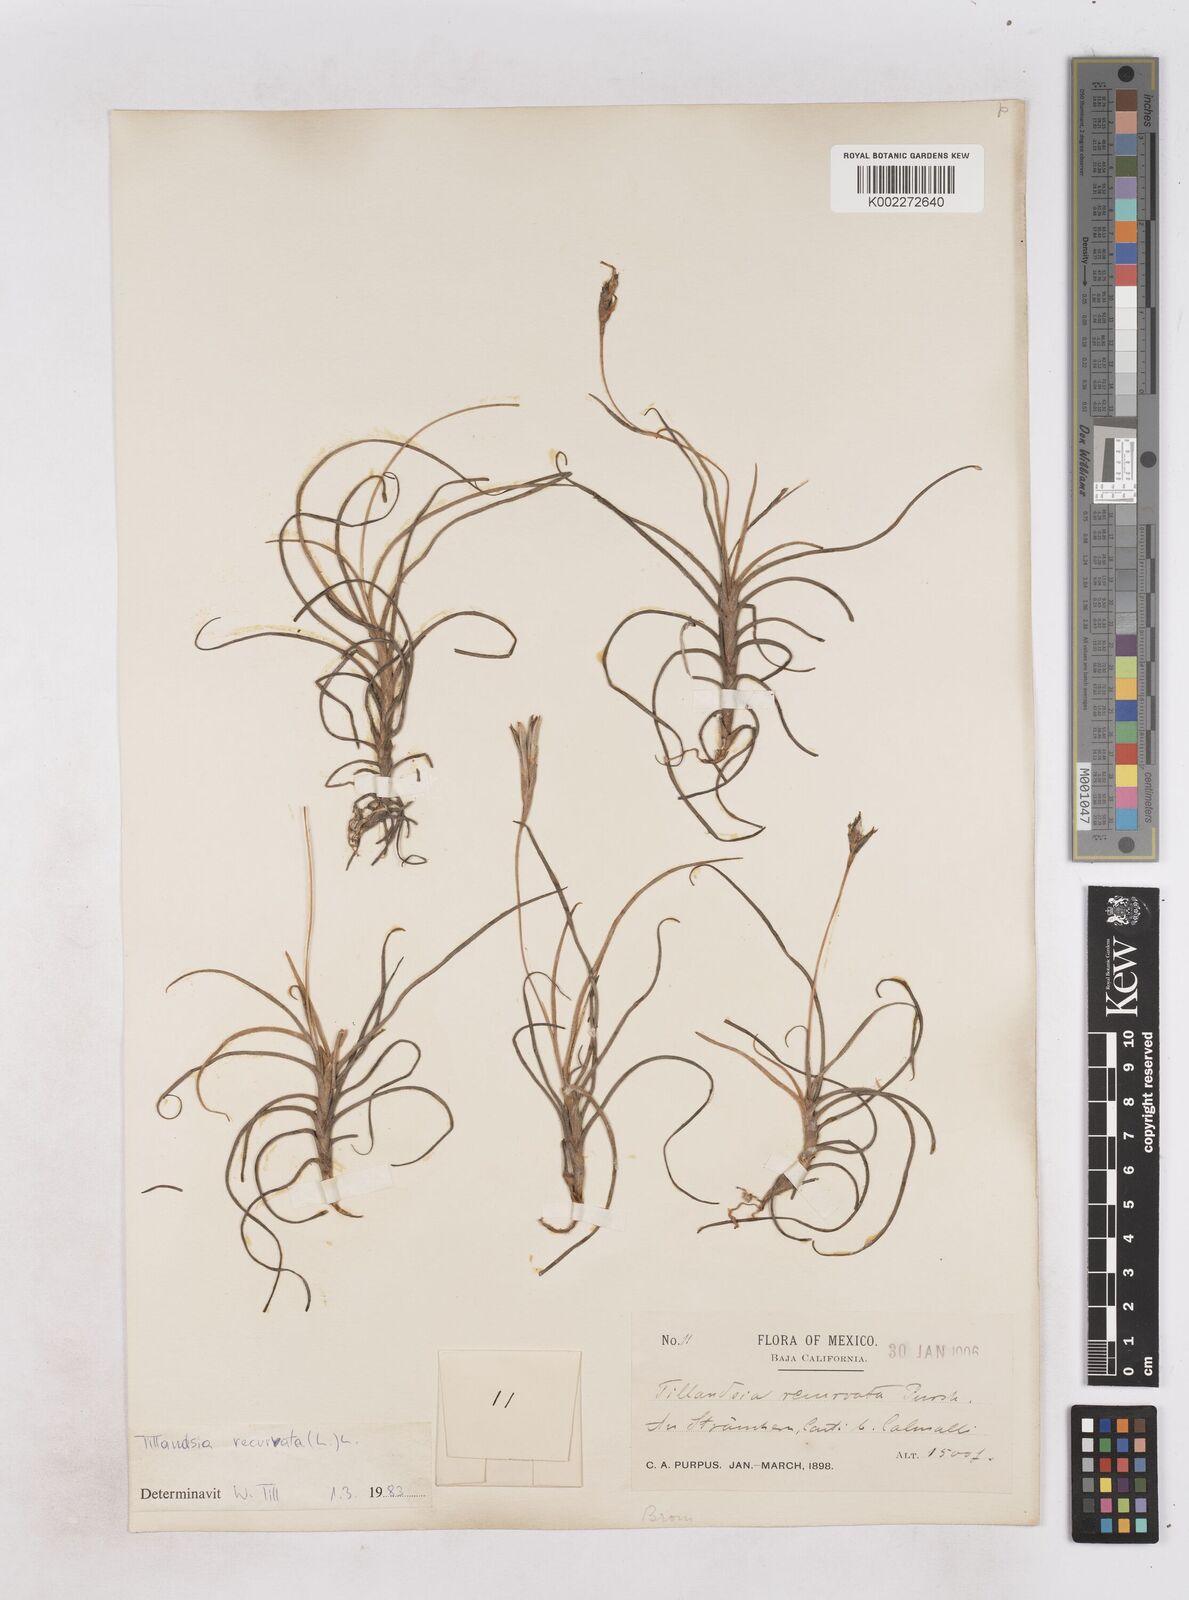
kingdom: Plantae
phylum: Tracheophyta
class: Liliopsida
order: Poales
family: Bromeliaceae
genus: Tillandsia
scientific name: Tillandsia recurvata
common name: Small ballmoss
